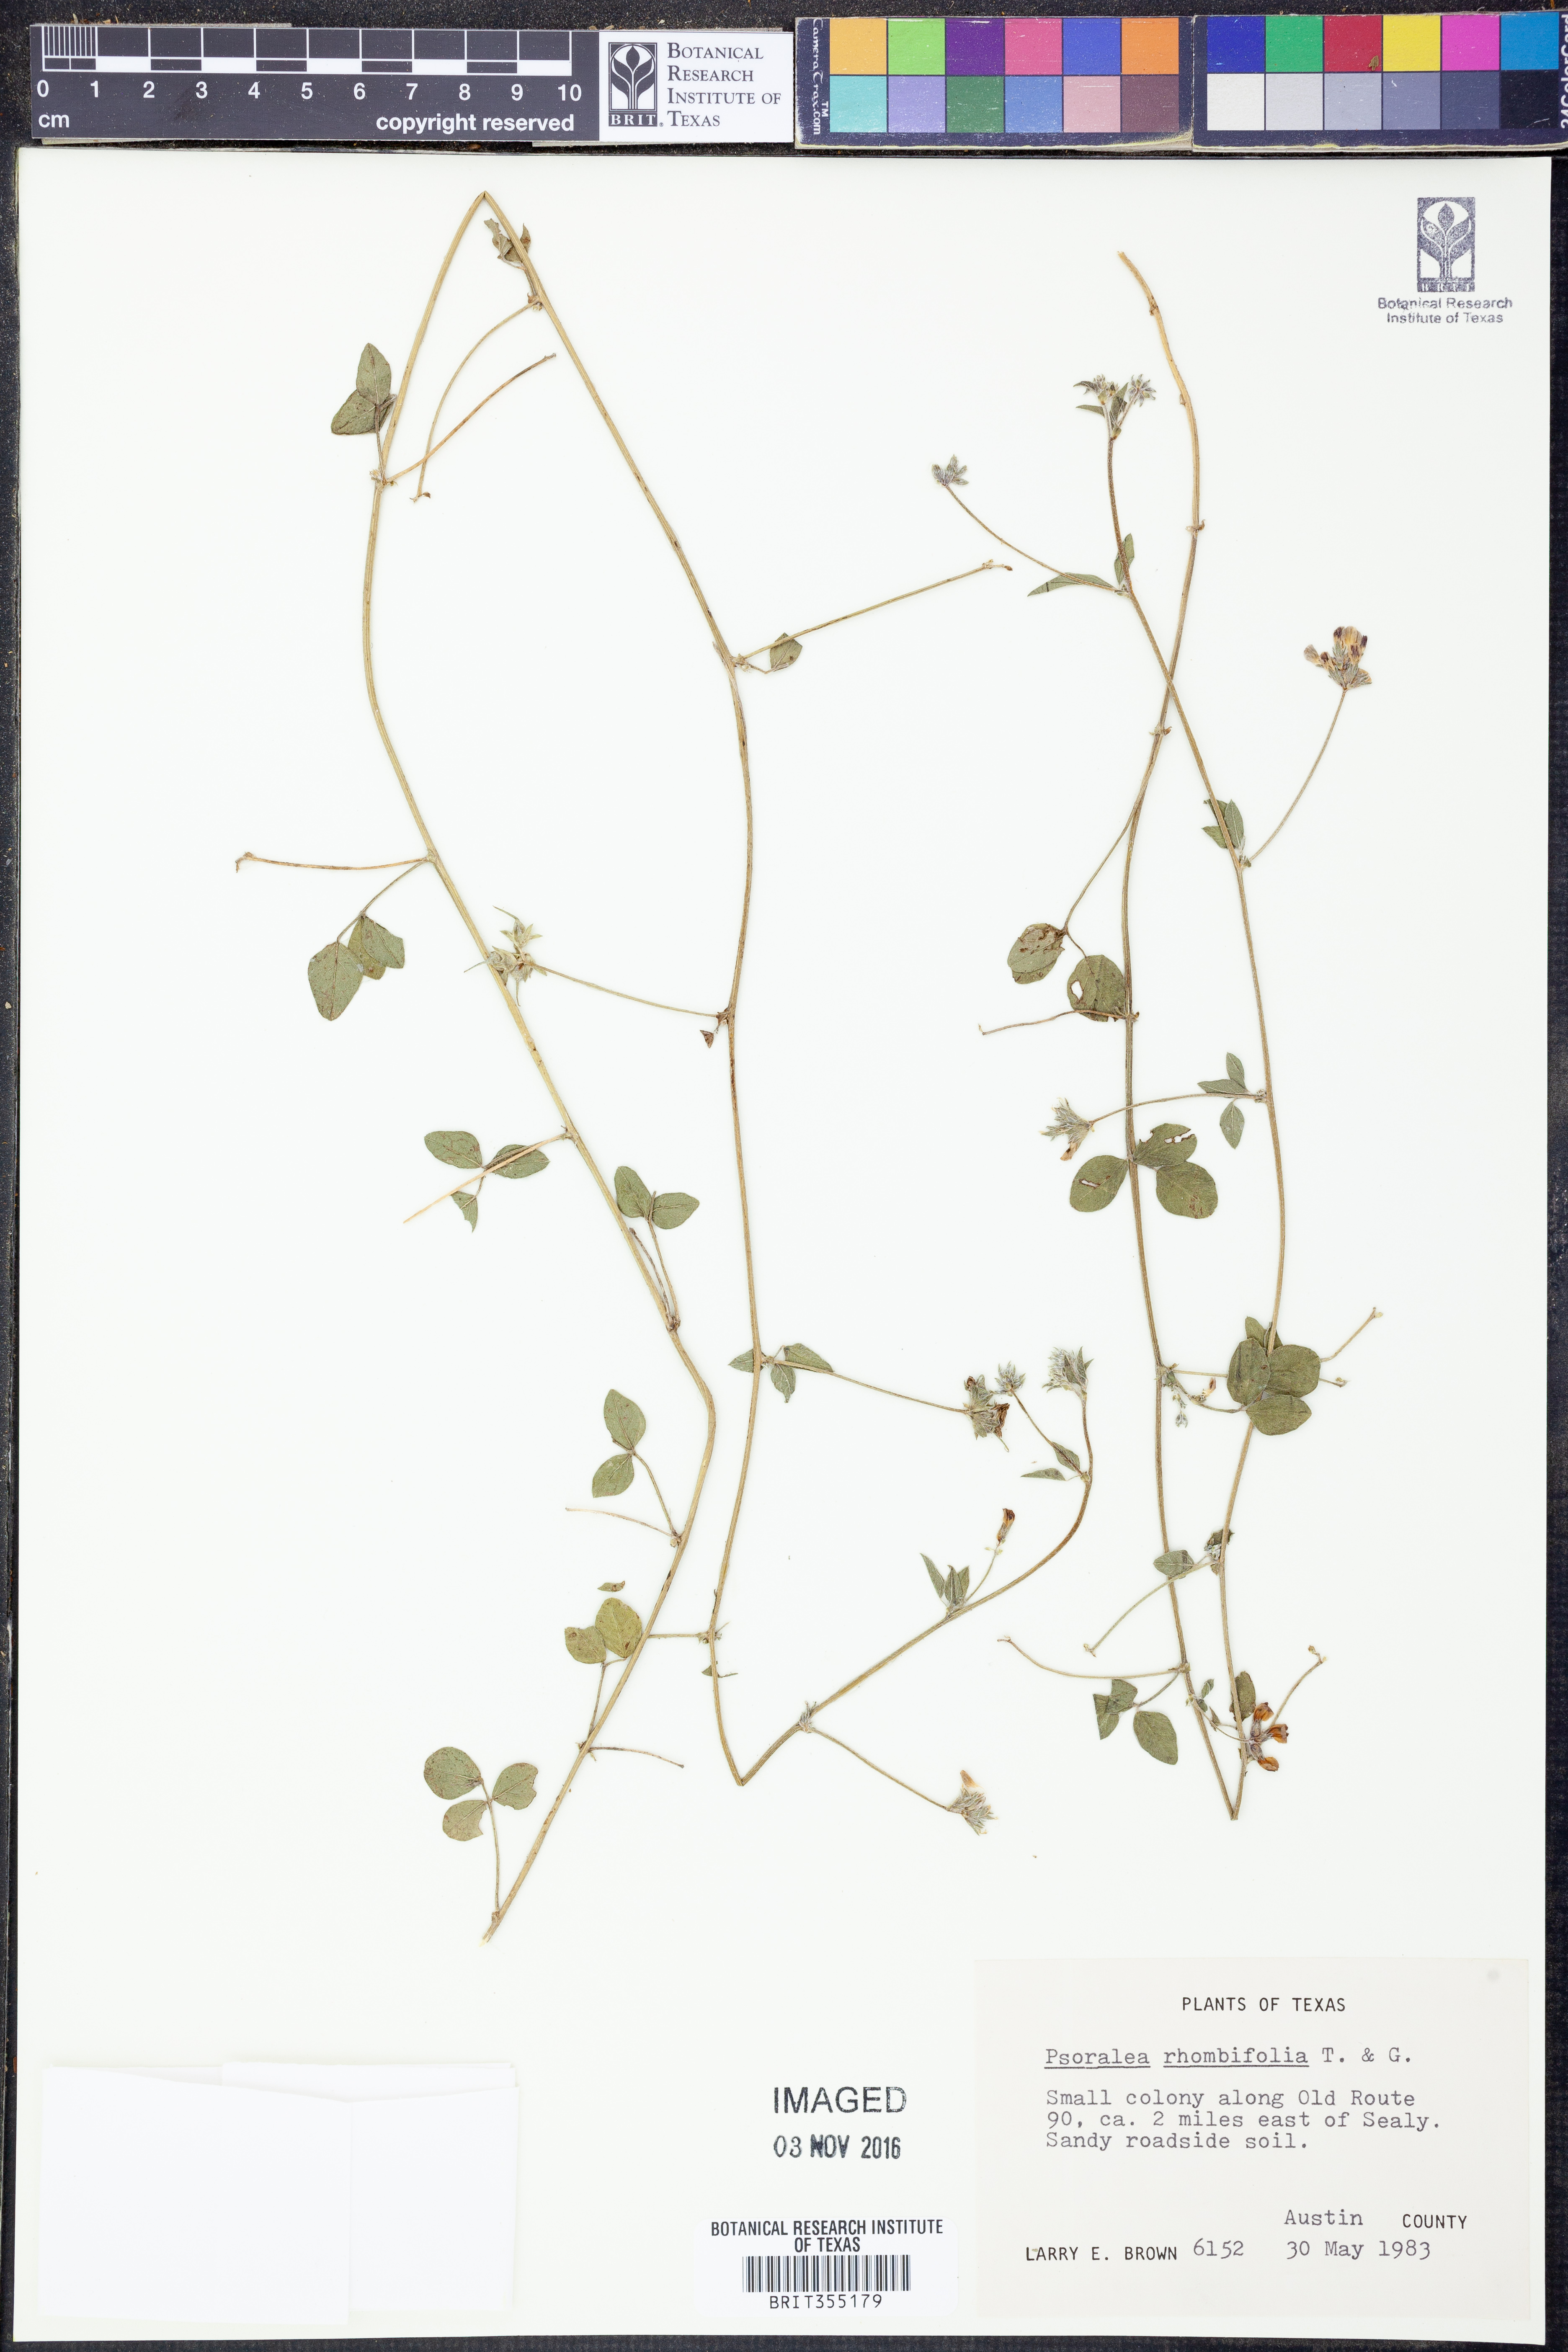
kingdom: Plantae
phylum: Tracheophyta
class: Magnoliopsida
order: Fabales
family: Fabaceae
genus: Pediomelum
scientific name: Pediomelum rhombifolium
